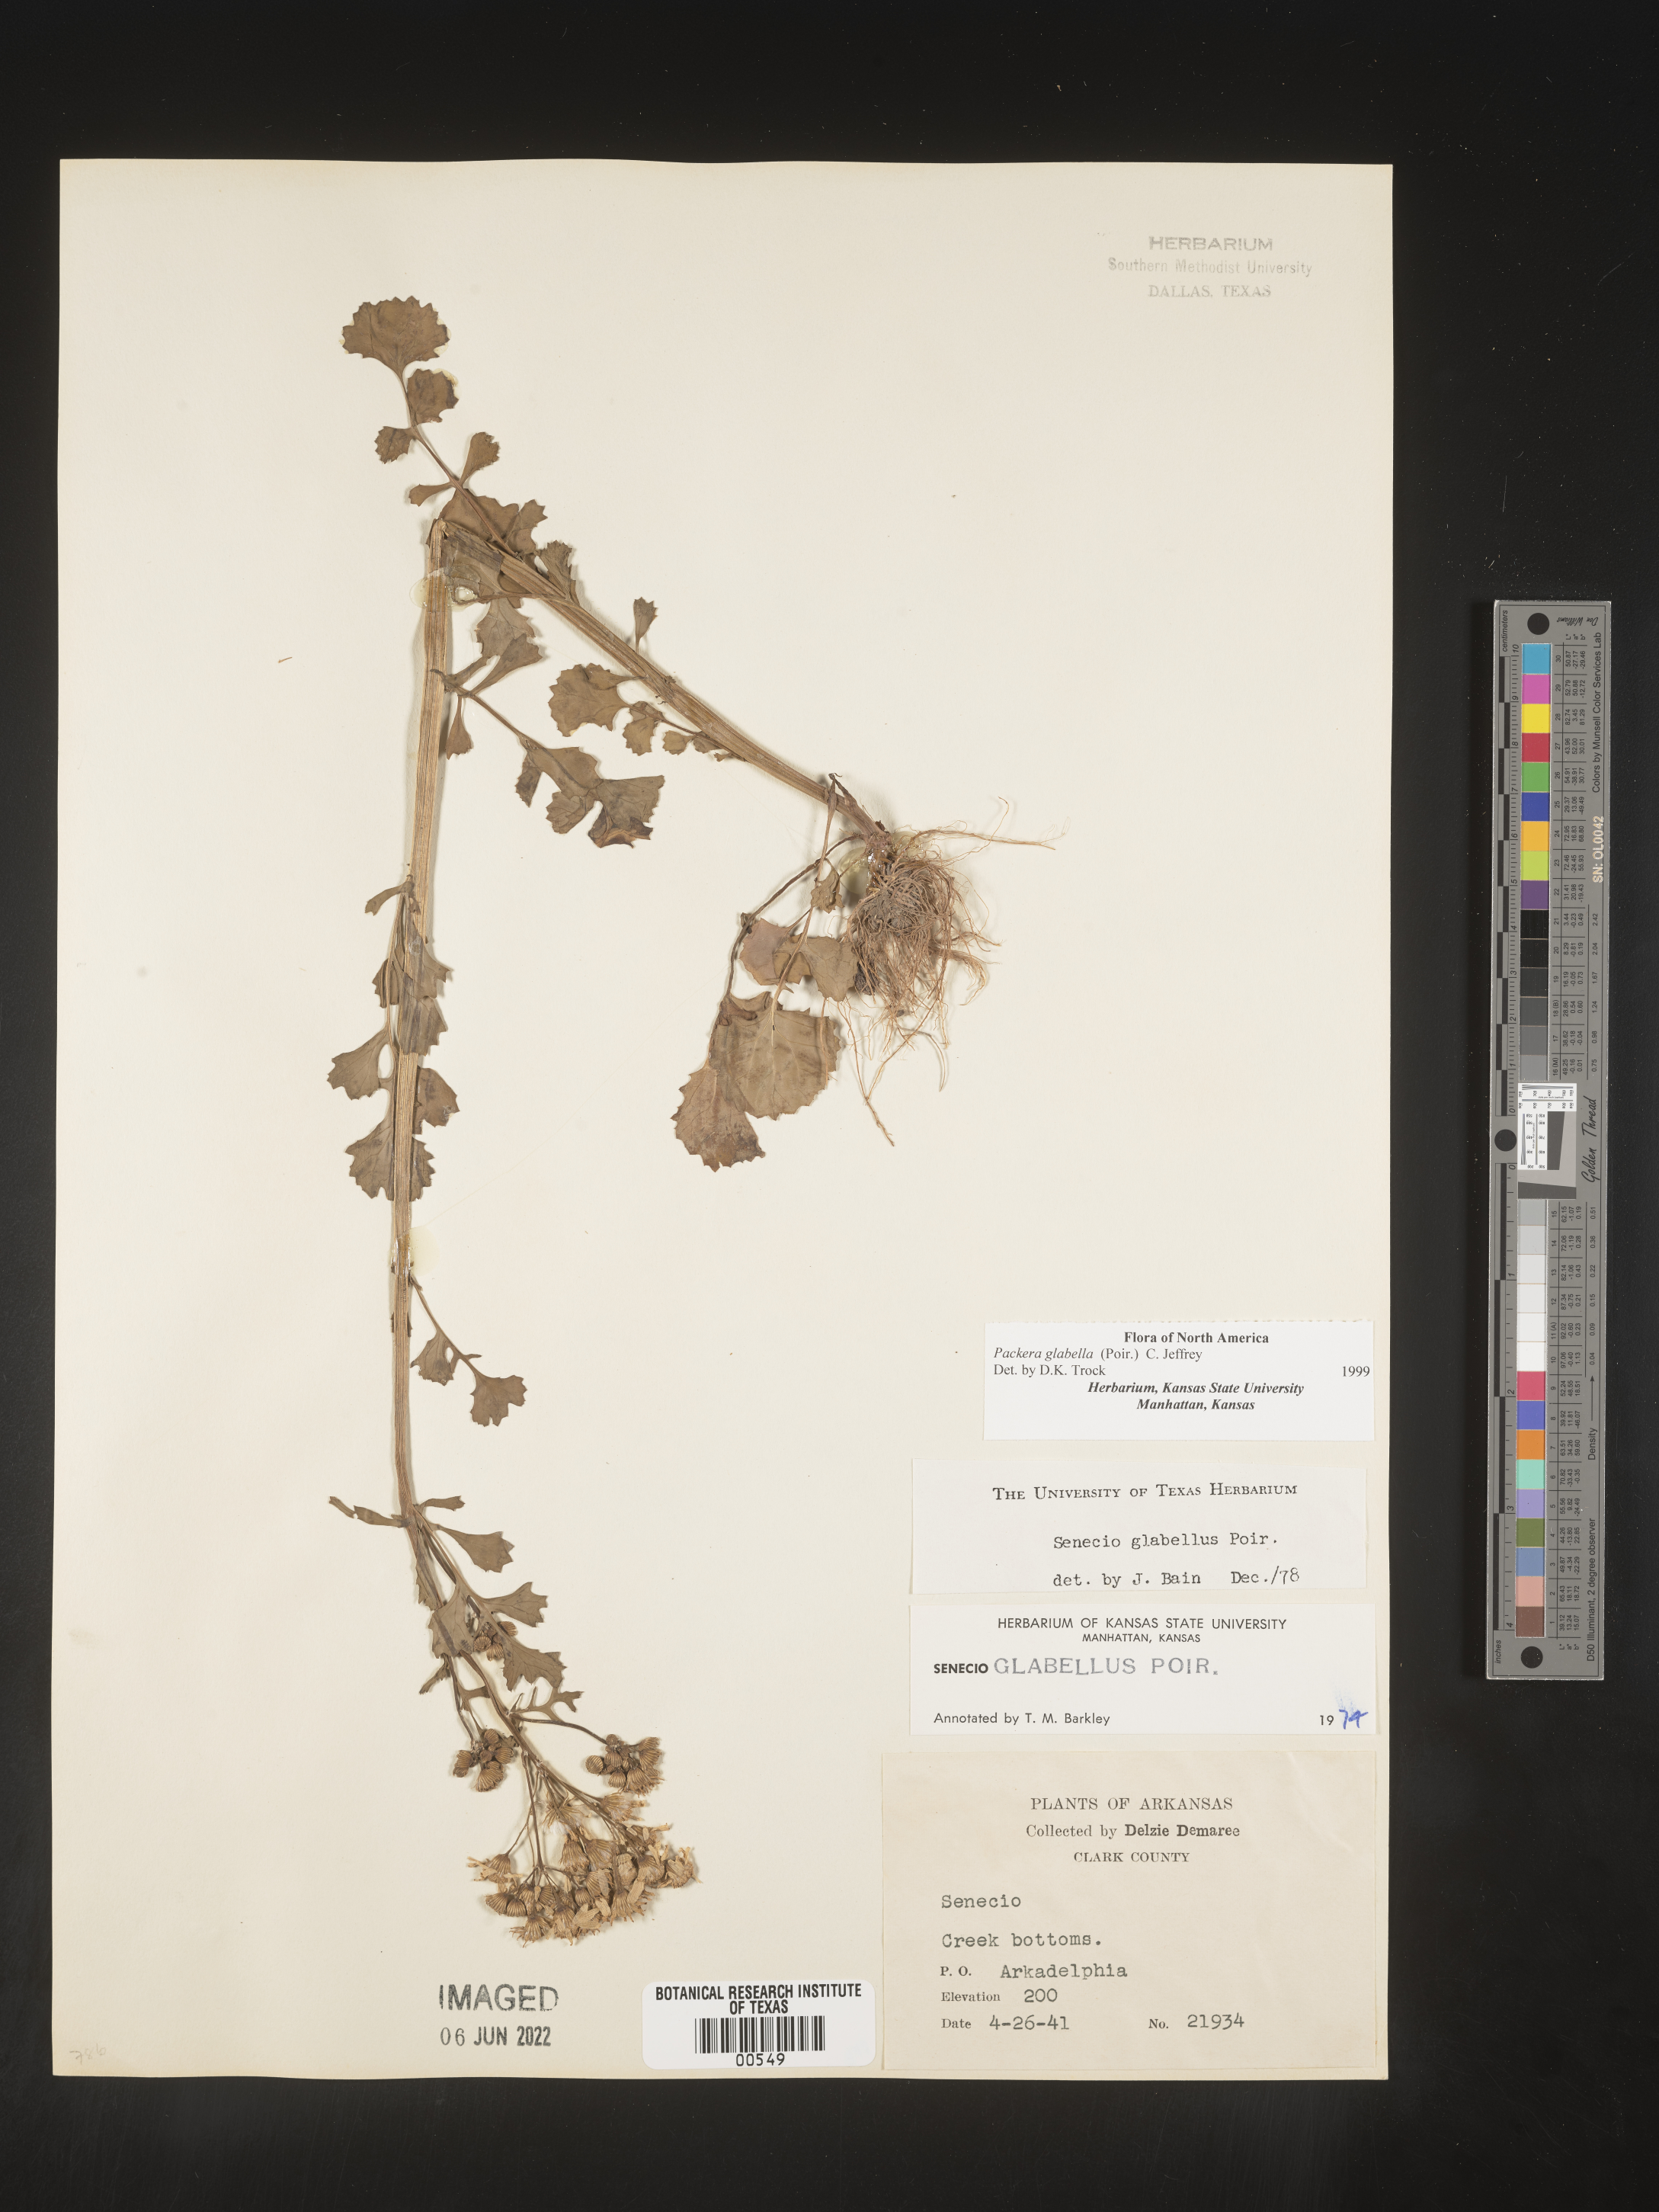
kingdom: Plantae
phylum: Tracheophyta
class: Magnoliopsida
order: Asterales
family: Asteraceae
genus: Packera
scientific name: Packera glabella
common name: Butterweed
